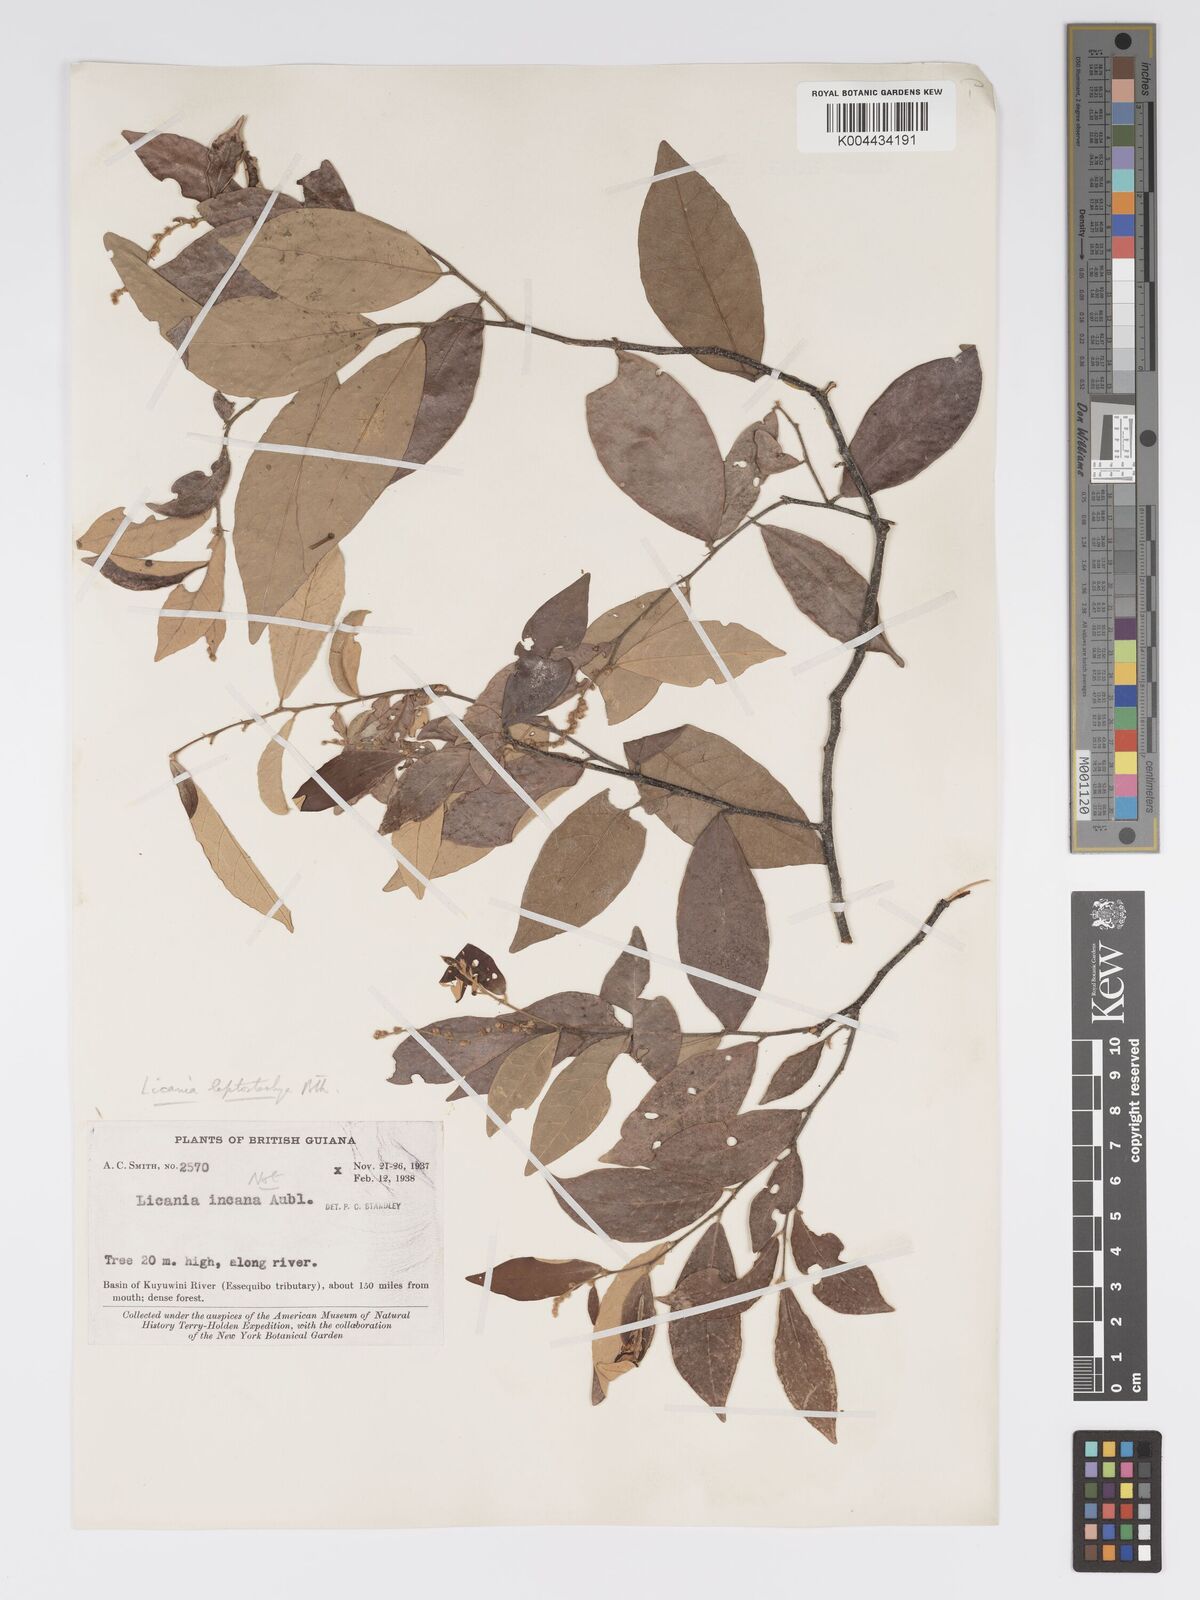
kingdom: Plantae
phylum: Tracheophyta
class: Magnoliopsida
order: Malpighiales
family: Chrysobalanaceae
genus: Licania
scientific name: Licania leptostachya
